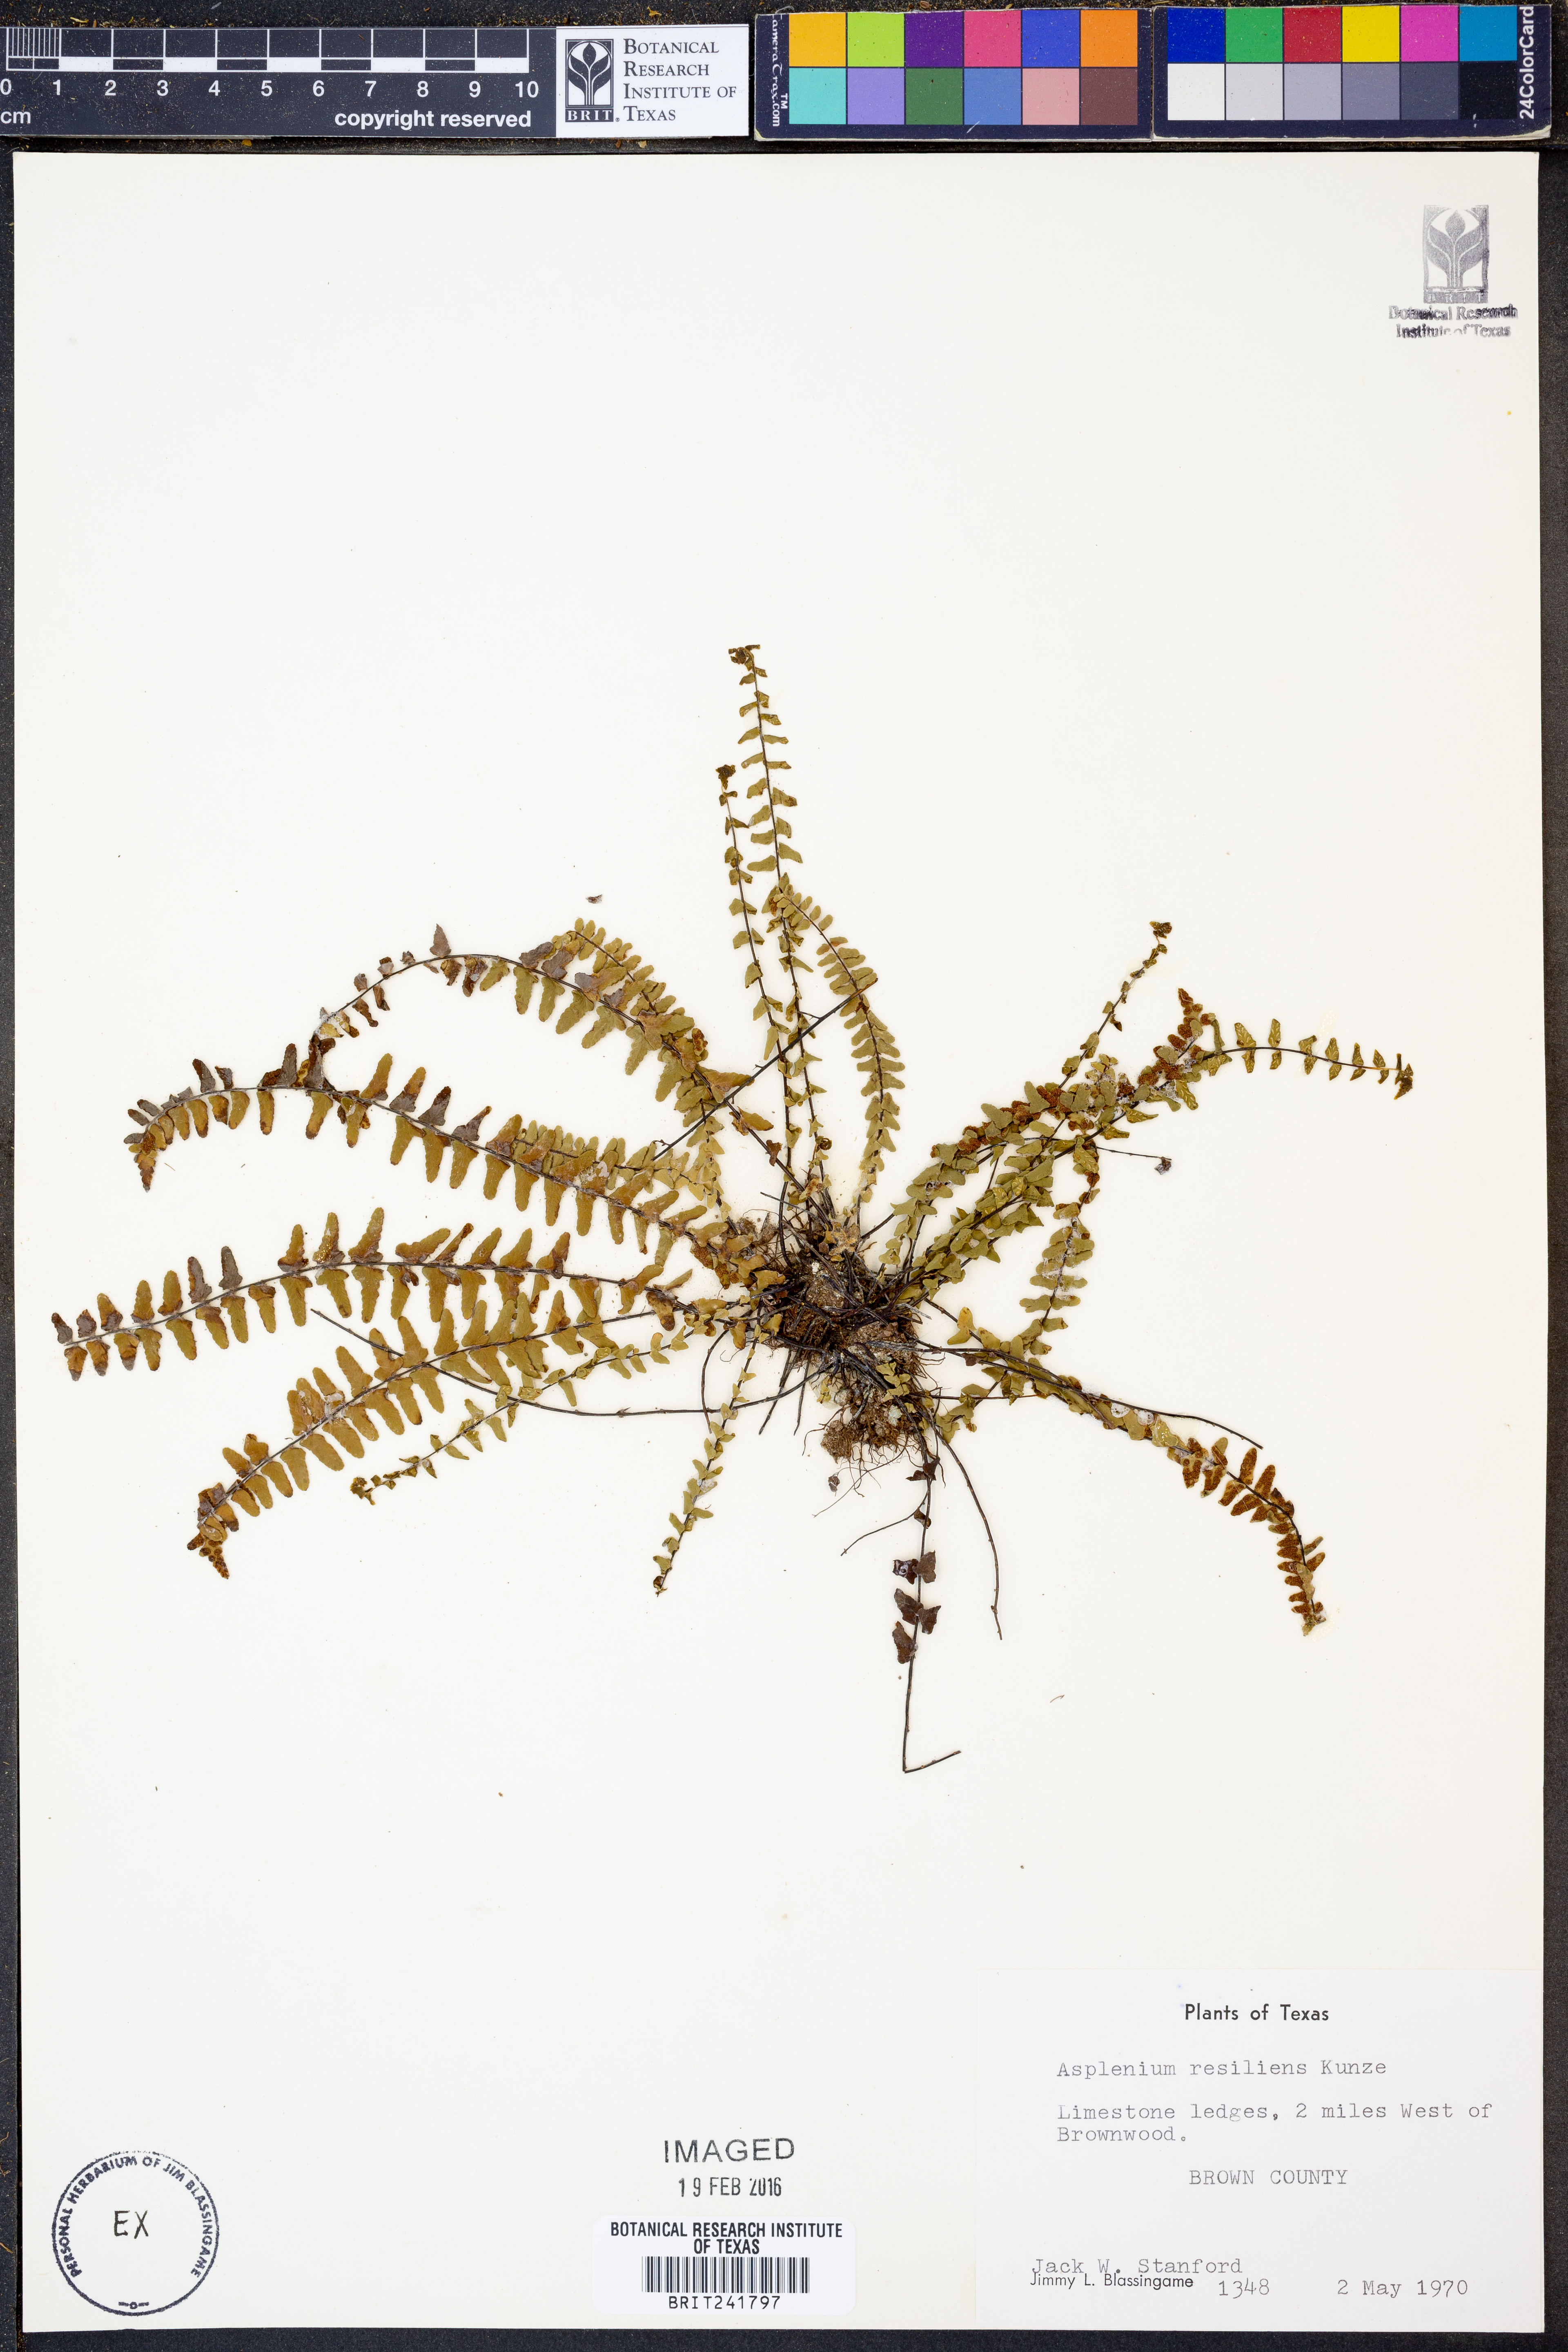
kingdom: Plantae
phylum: Tracheophyta
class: Polypodiopsida
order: Polypodiales
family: Aspleniaceae
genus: Asplenium
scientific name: Asplenium resiliens
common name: Blackstem spleenwort
